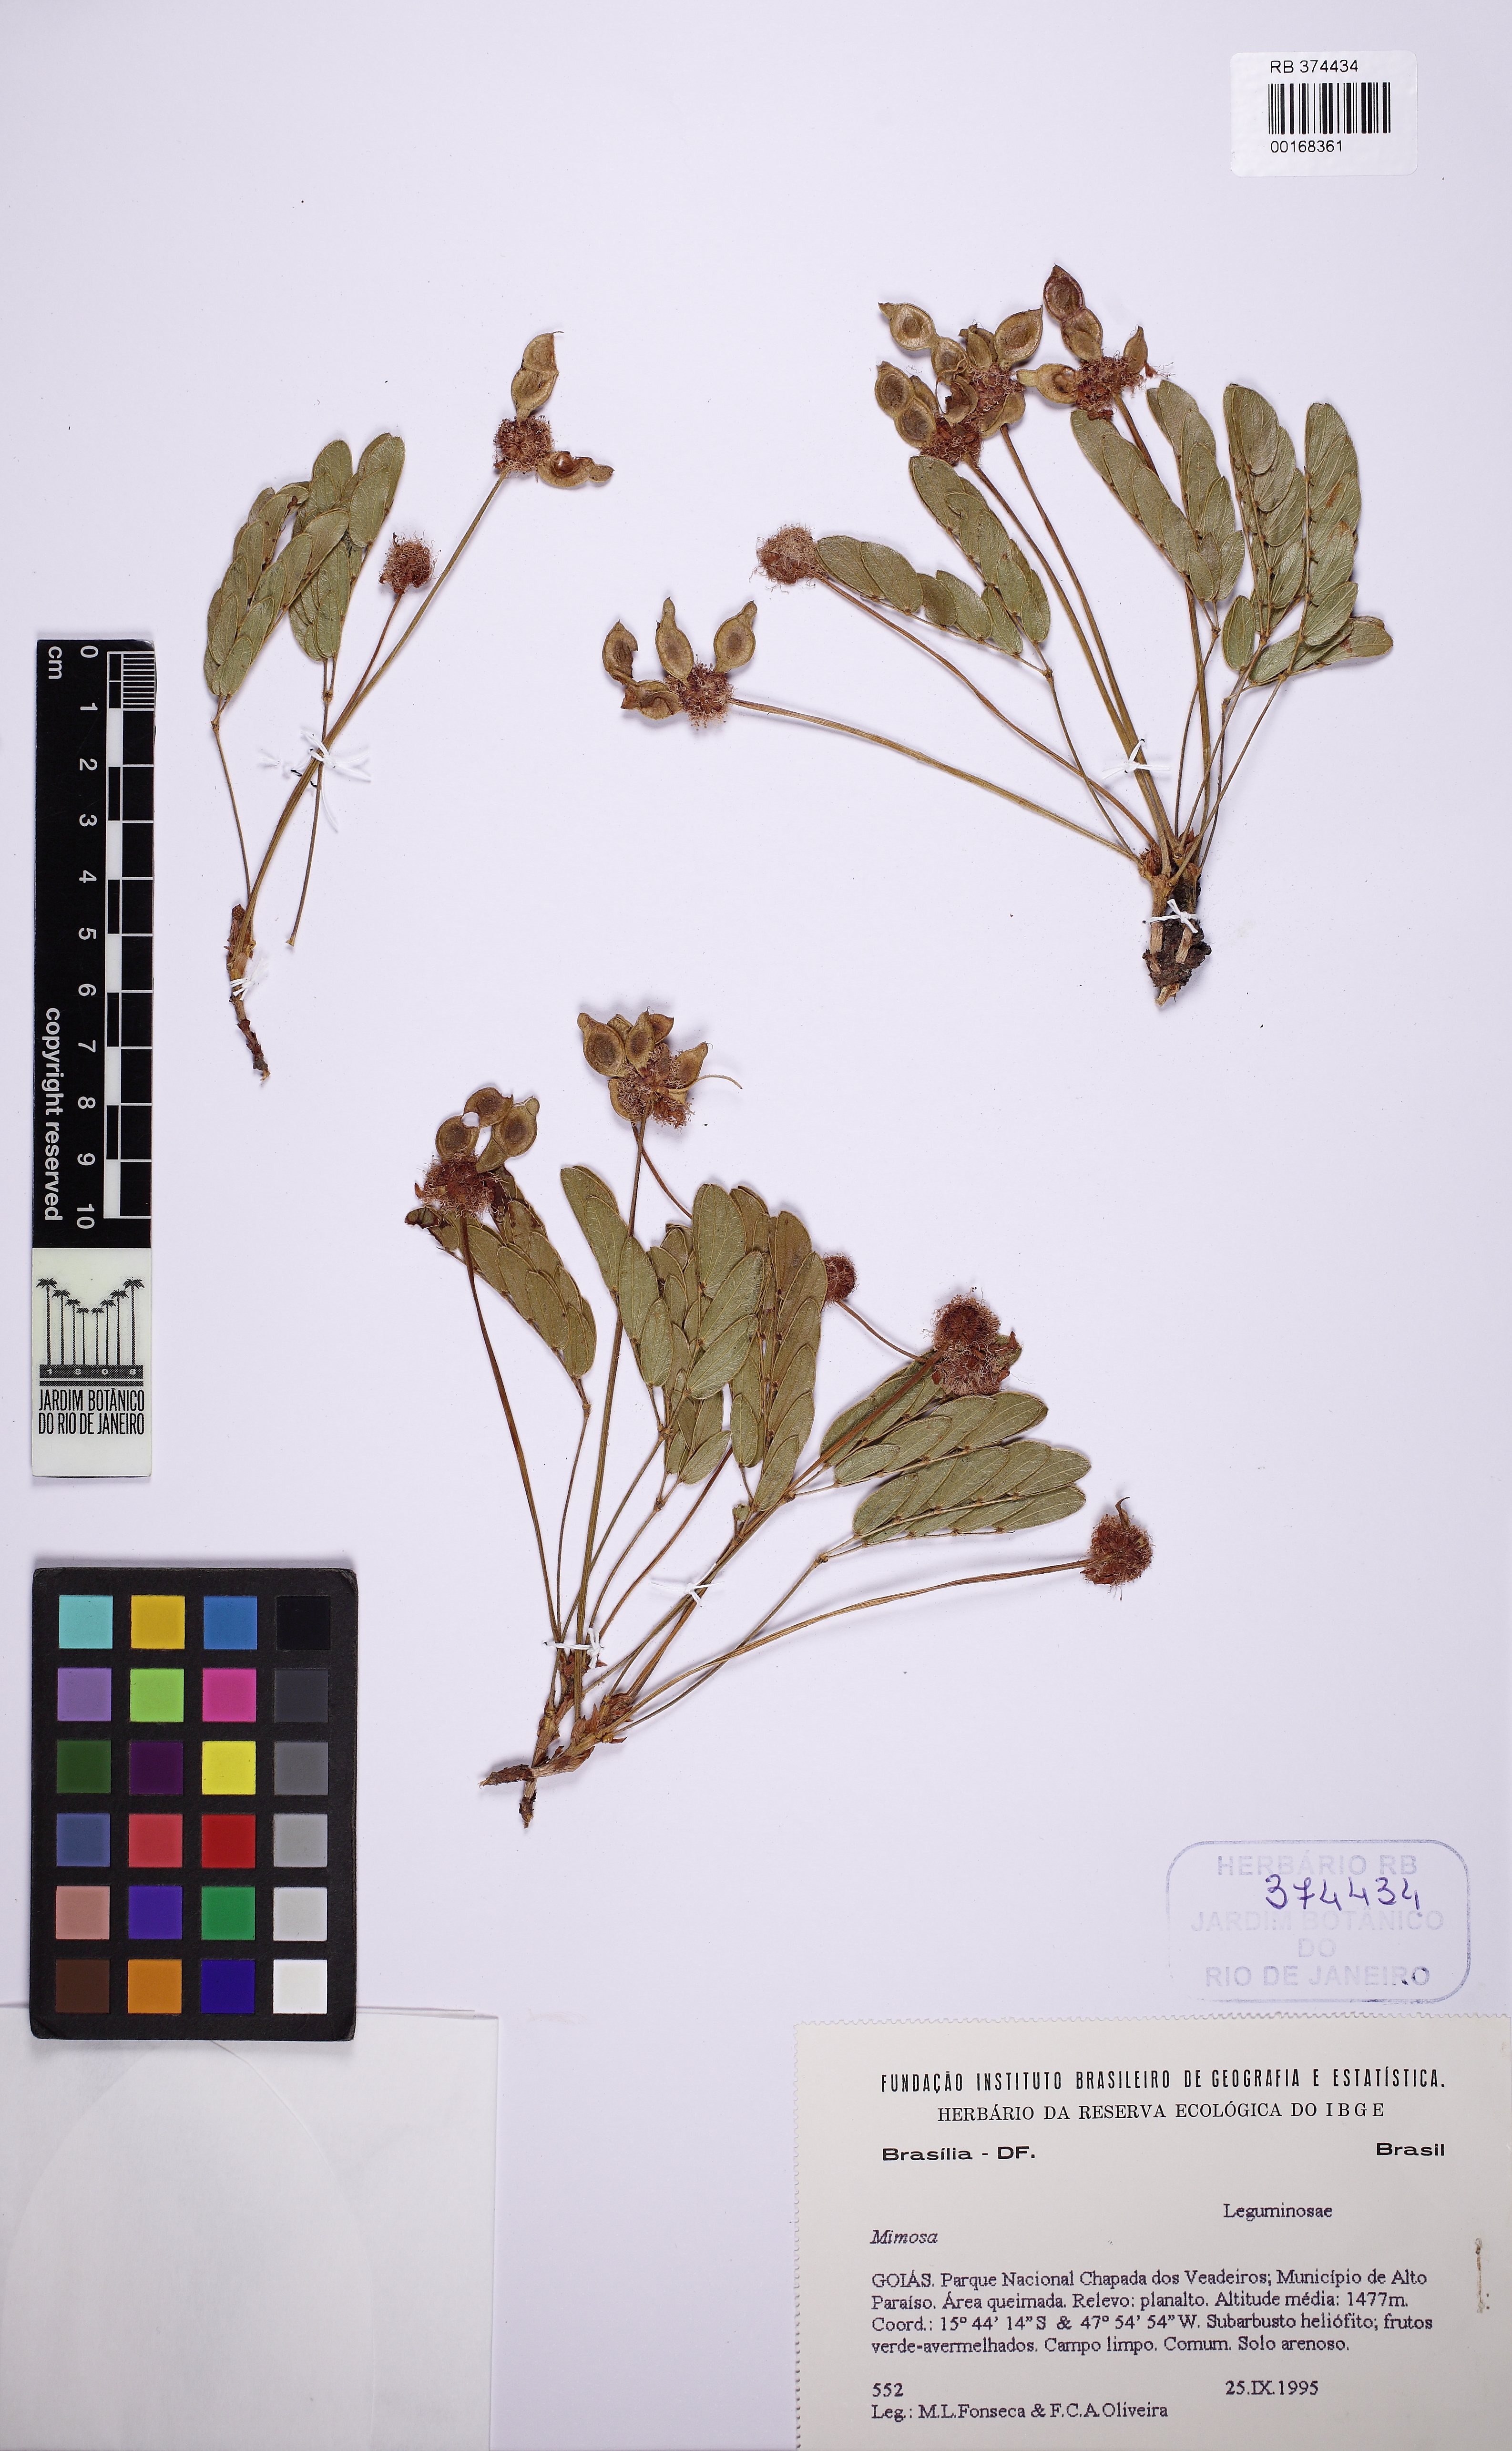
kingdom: Plantae
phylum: Tracheophyta
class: Magnoliopsida
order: Fabales
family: Fabaceae
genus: Mimosa
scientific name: Mimosa demissa
